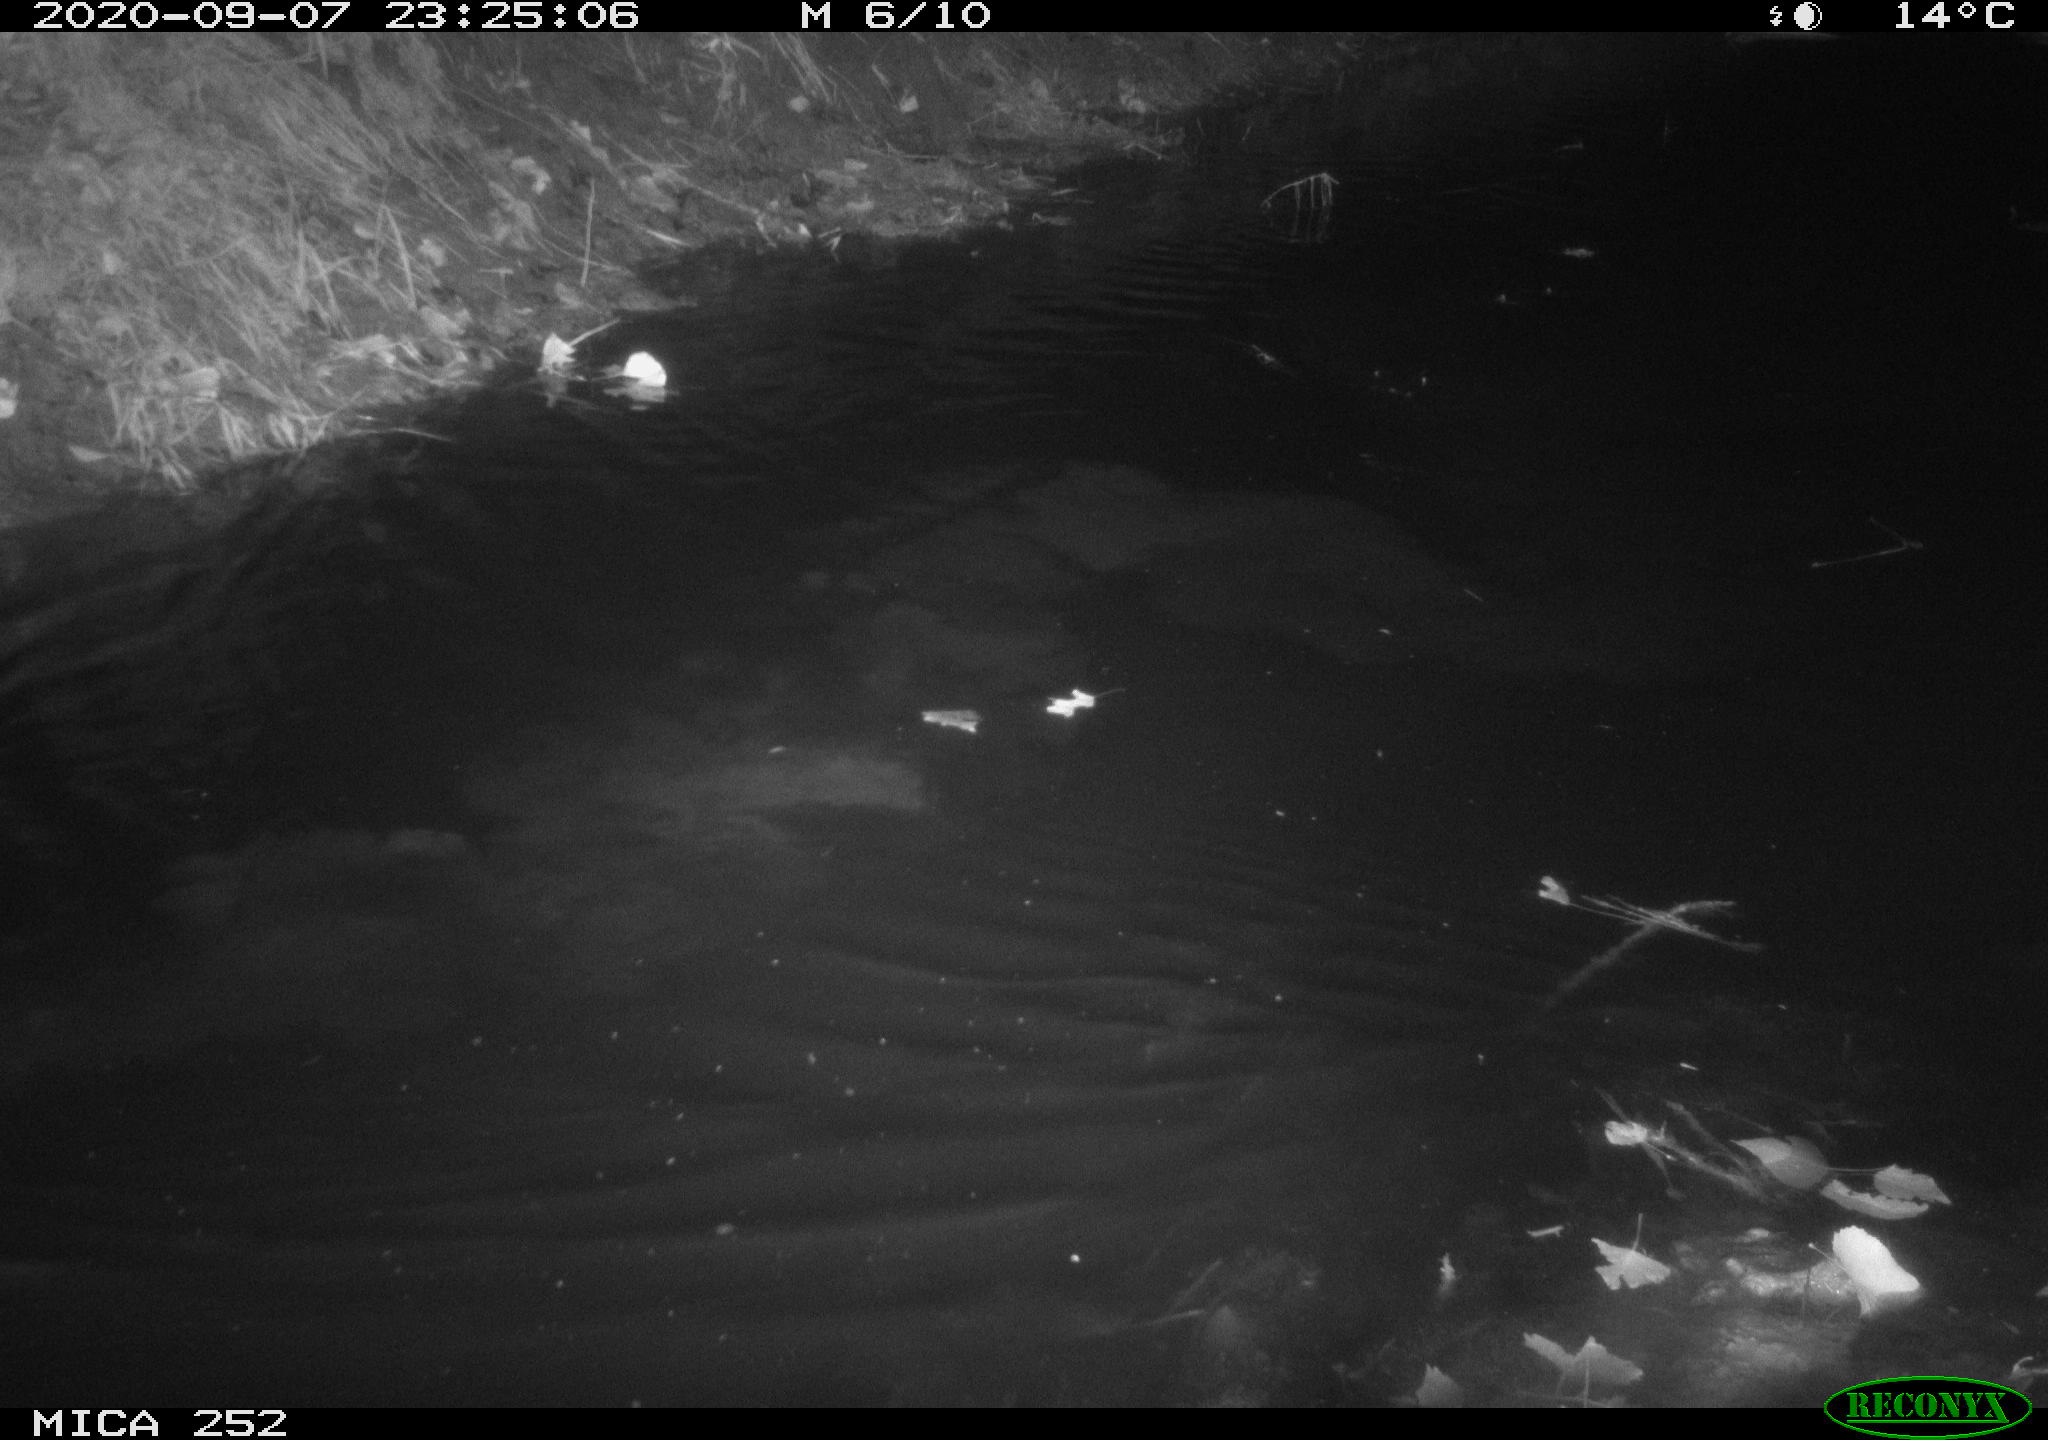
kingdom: Animalia
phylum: Chordata
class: Mammalia
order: Rodentia
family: Castoridae
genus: Castor
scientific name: Castor fiber
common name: Eurasian beaver
